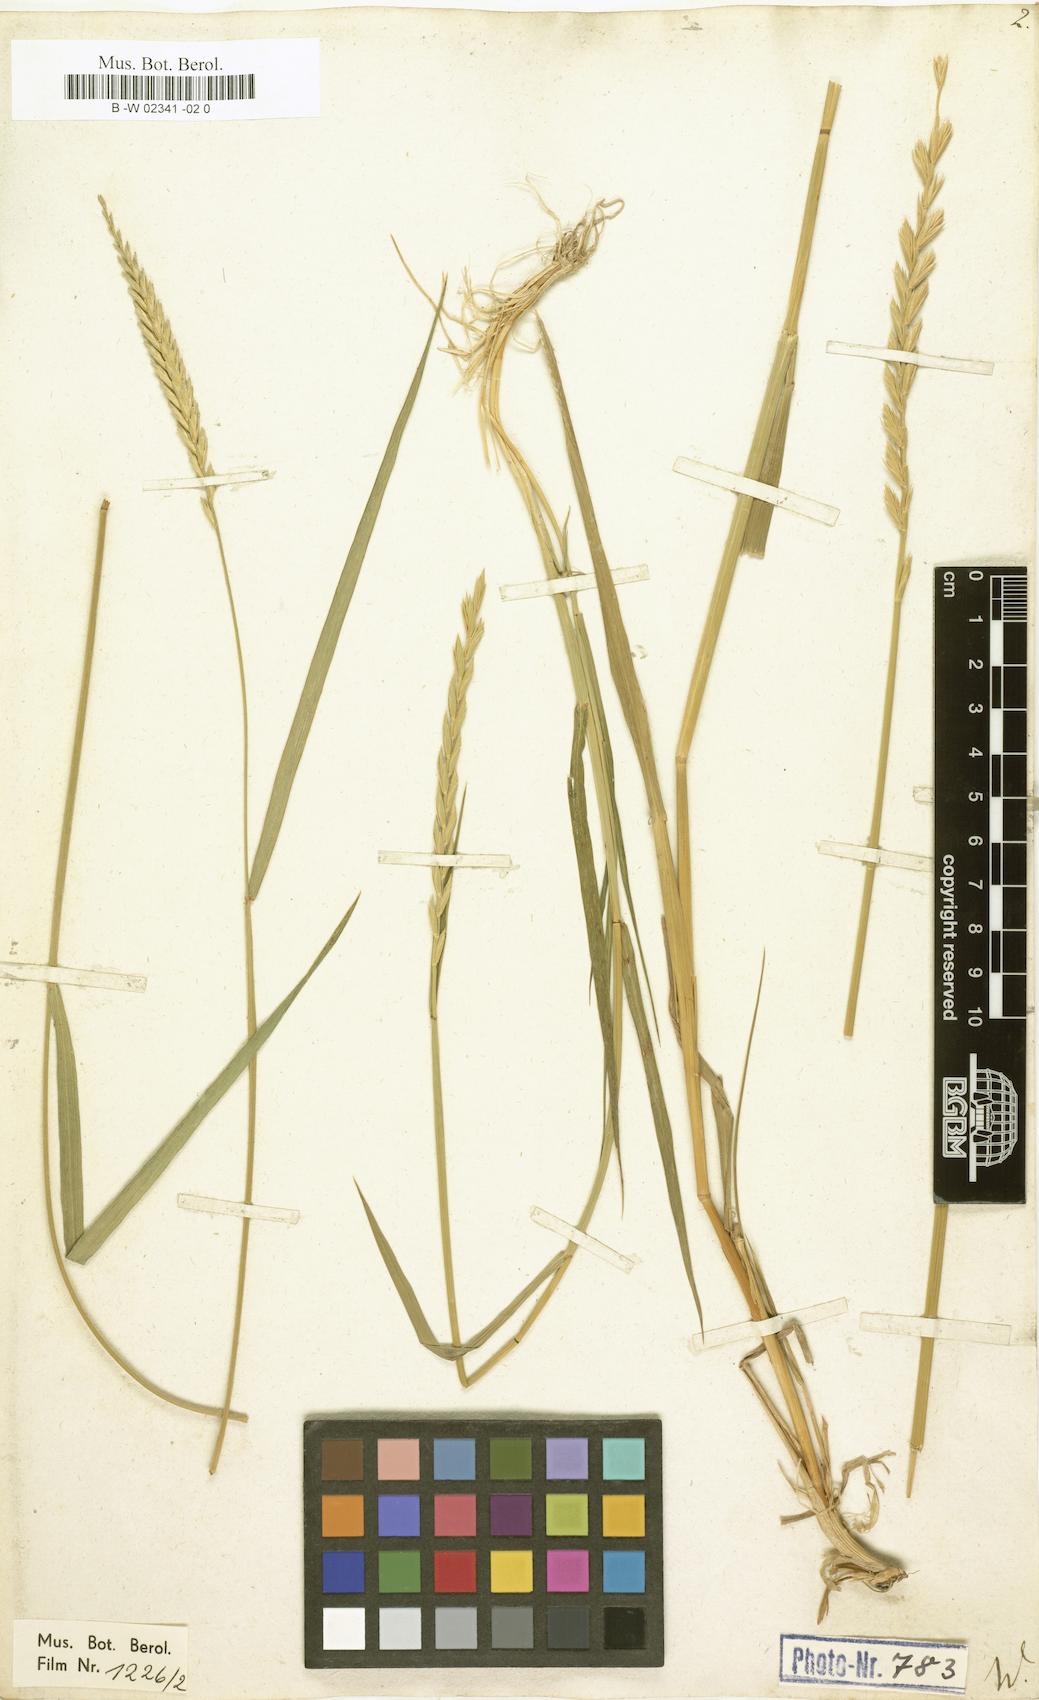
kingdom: Plantae
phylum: Tracheophyta
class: Liliopsida
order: Poales
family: Poaceae
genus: Agropyron
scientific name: Agropyron fragile
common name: Siberian wheatgrass
